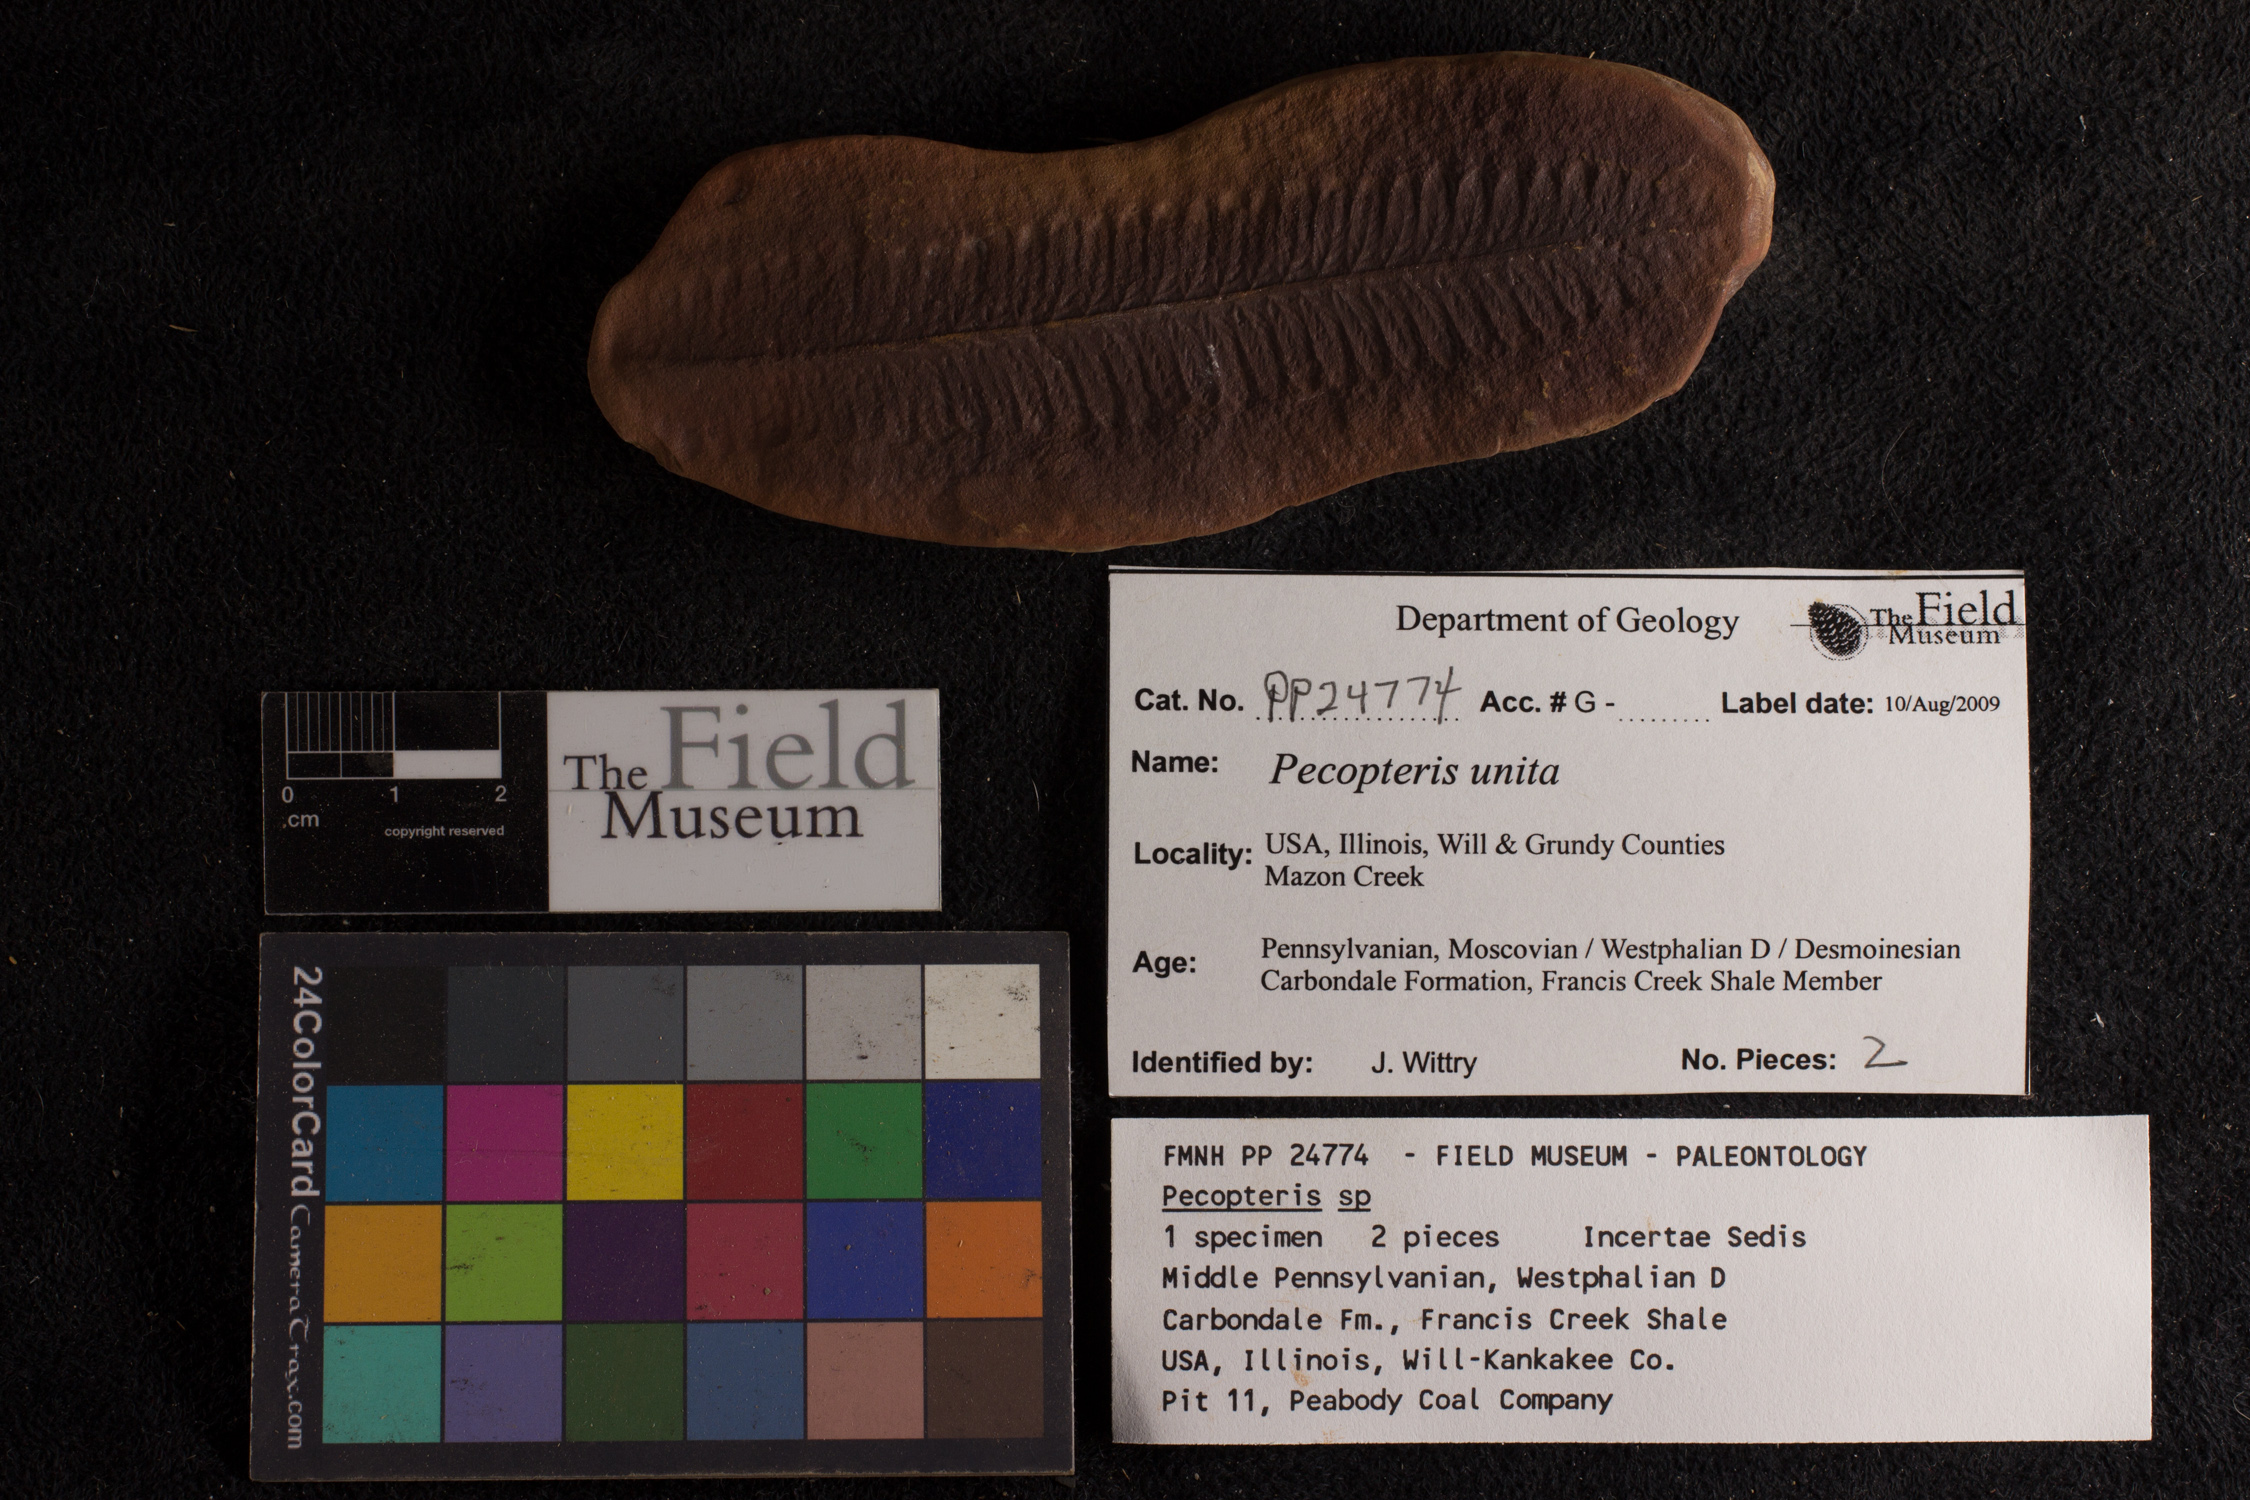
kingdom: Plantae
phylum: Tracheophyta
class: Polypodiopsida
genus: Diplazites
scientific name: Diplazites
